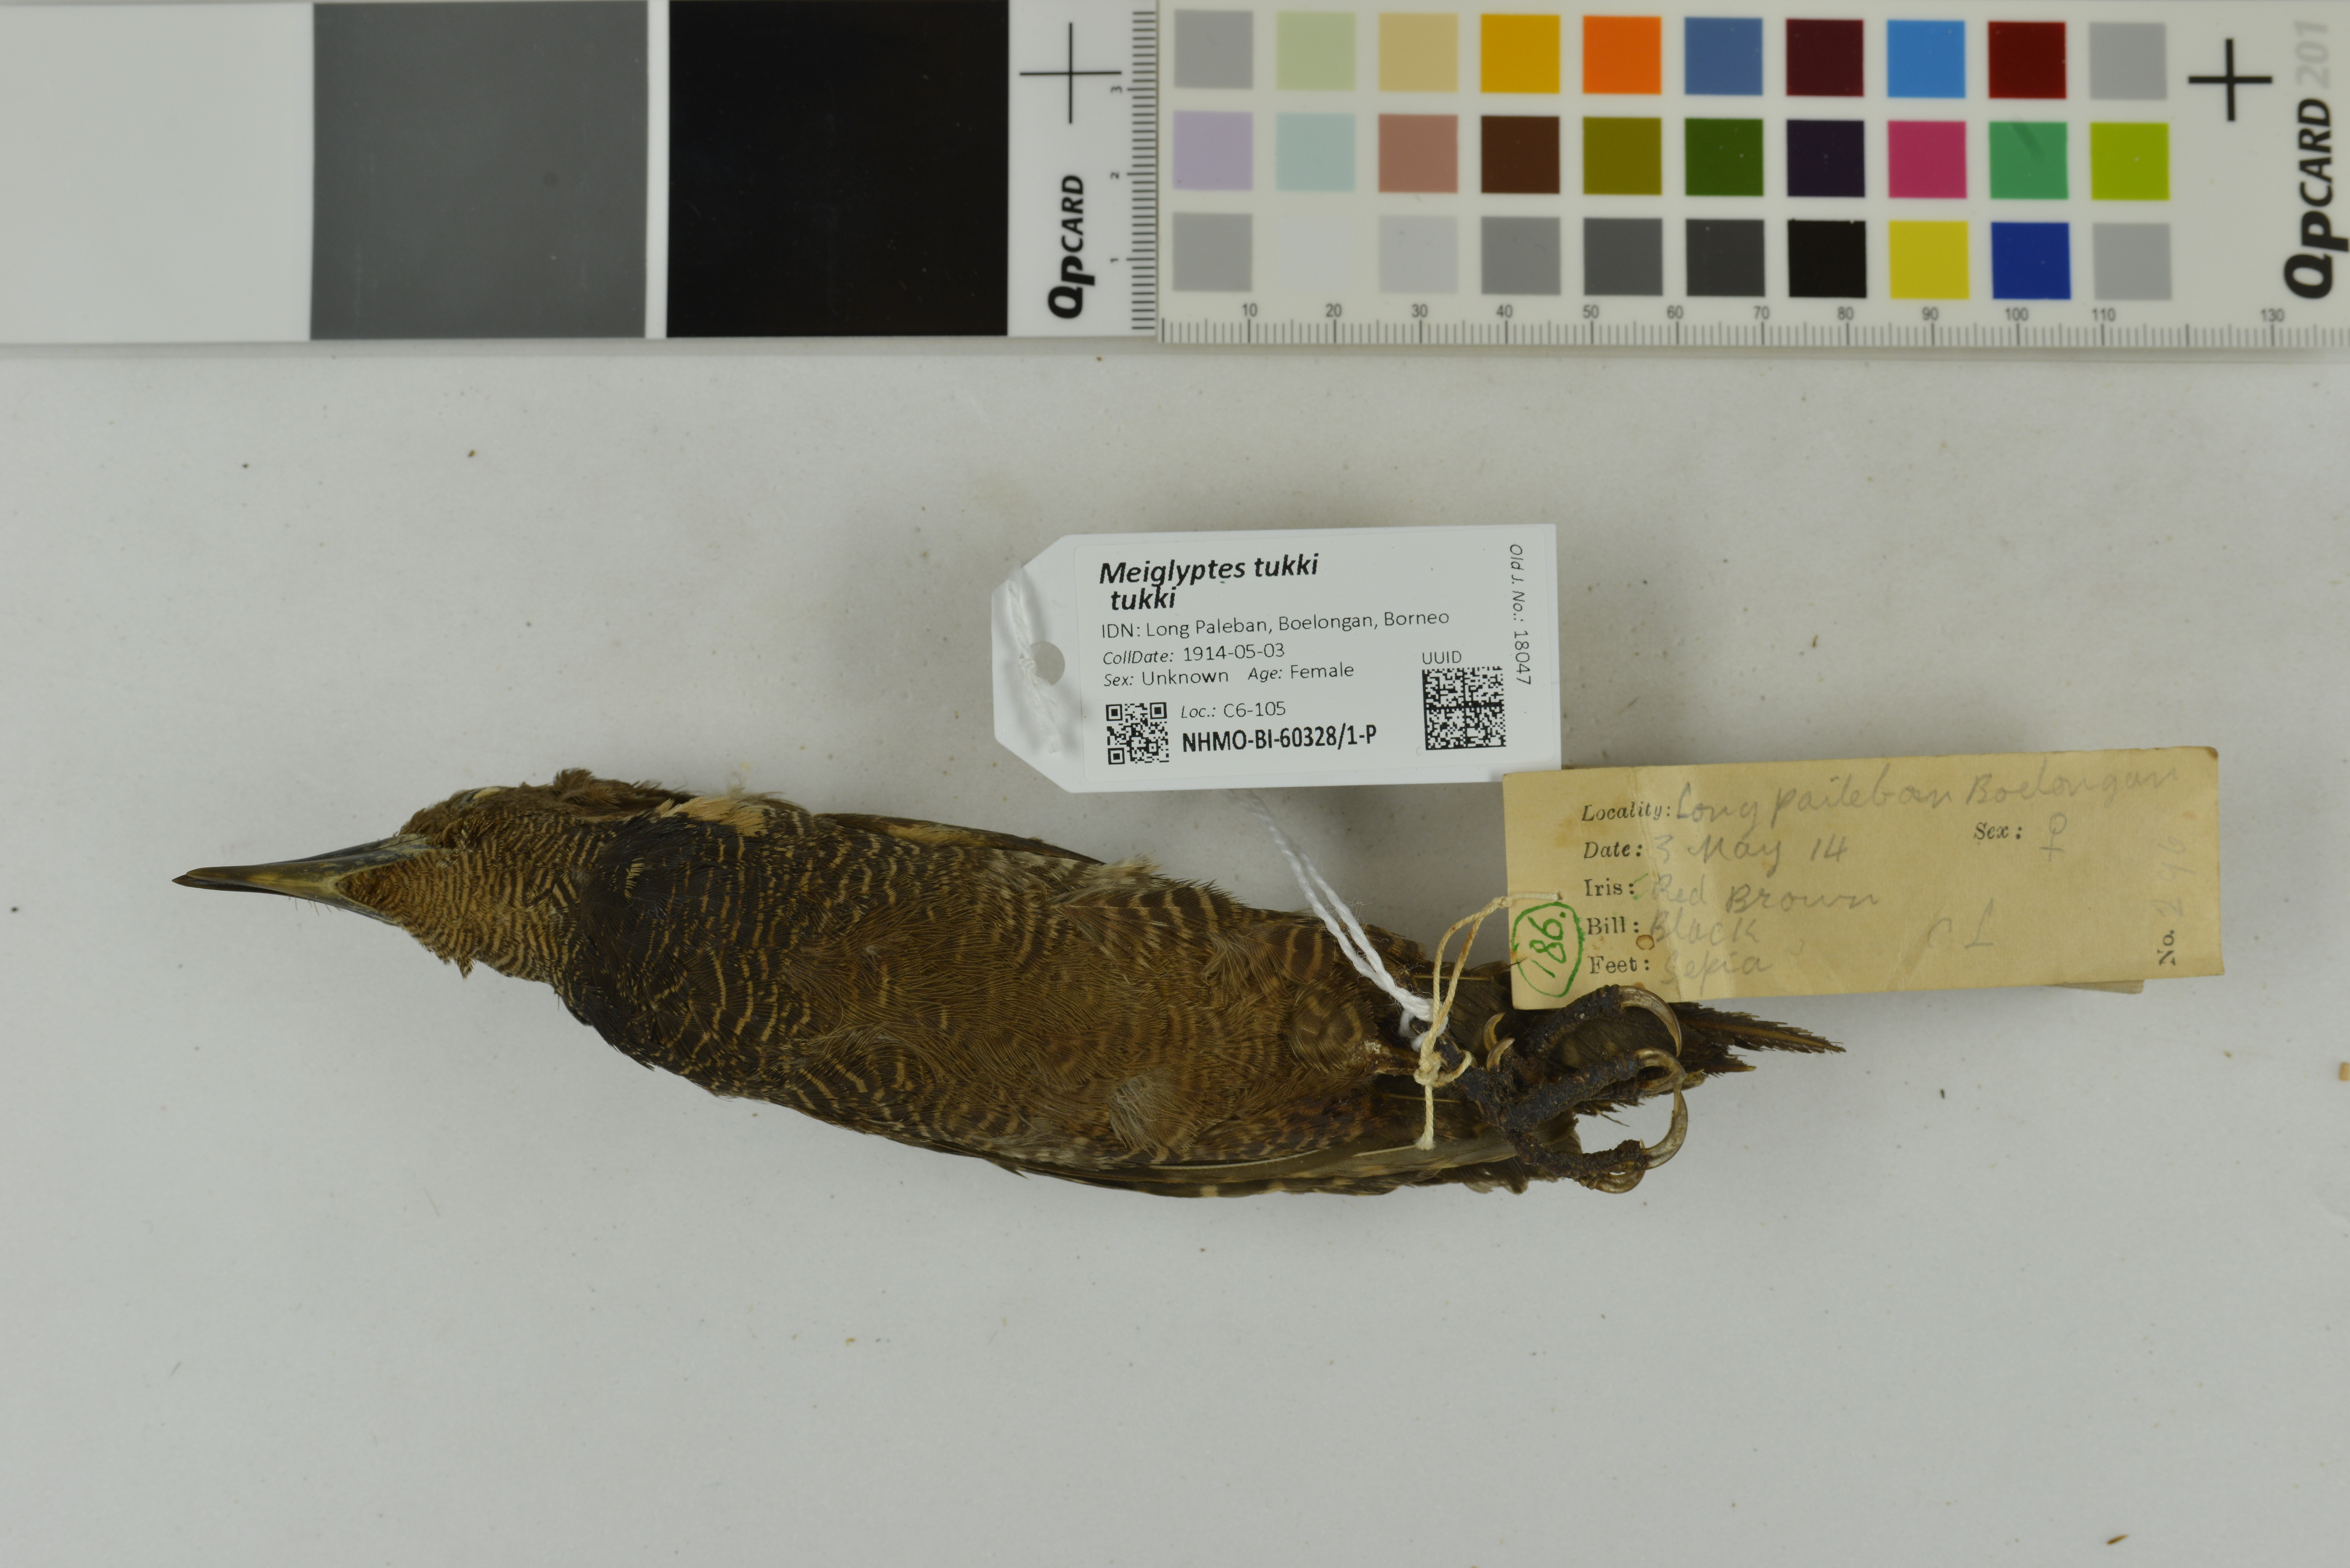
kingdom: Animalia
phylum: Chordata
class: Aves
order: Piciformes
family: Picidae
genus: Meiglyptes
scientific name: Meiglyptes tukki
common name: Buff-necked woodpecker
